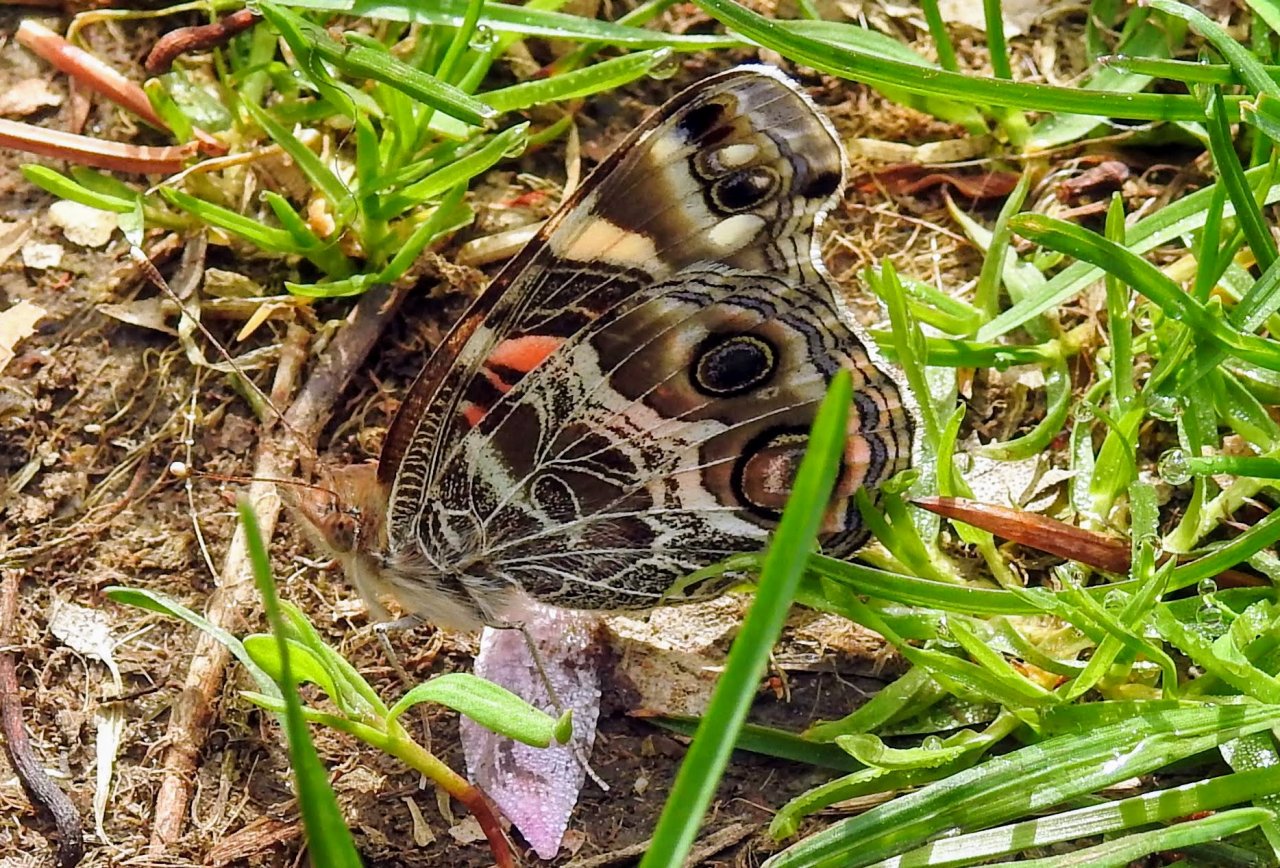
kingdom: Animalia
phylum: Arthropoda
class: Insecta
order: Lepidoptera
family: Nymphalidae
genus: Vanessa
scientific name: Vanessa virginiensis
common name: American Lady
